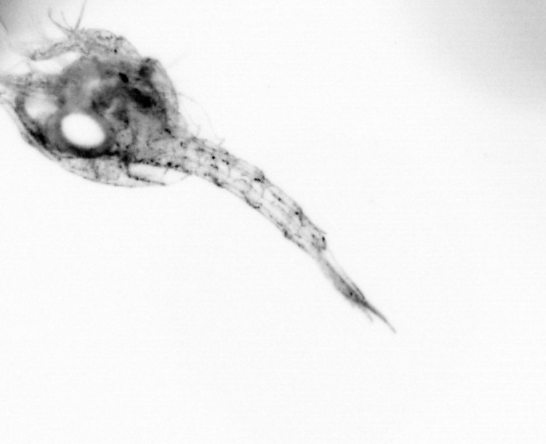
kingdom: Animalia
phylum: Arthropoda
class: Copepoda
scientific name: Copepoda
